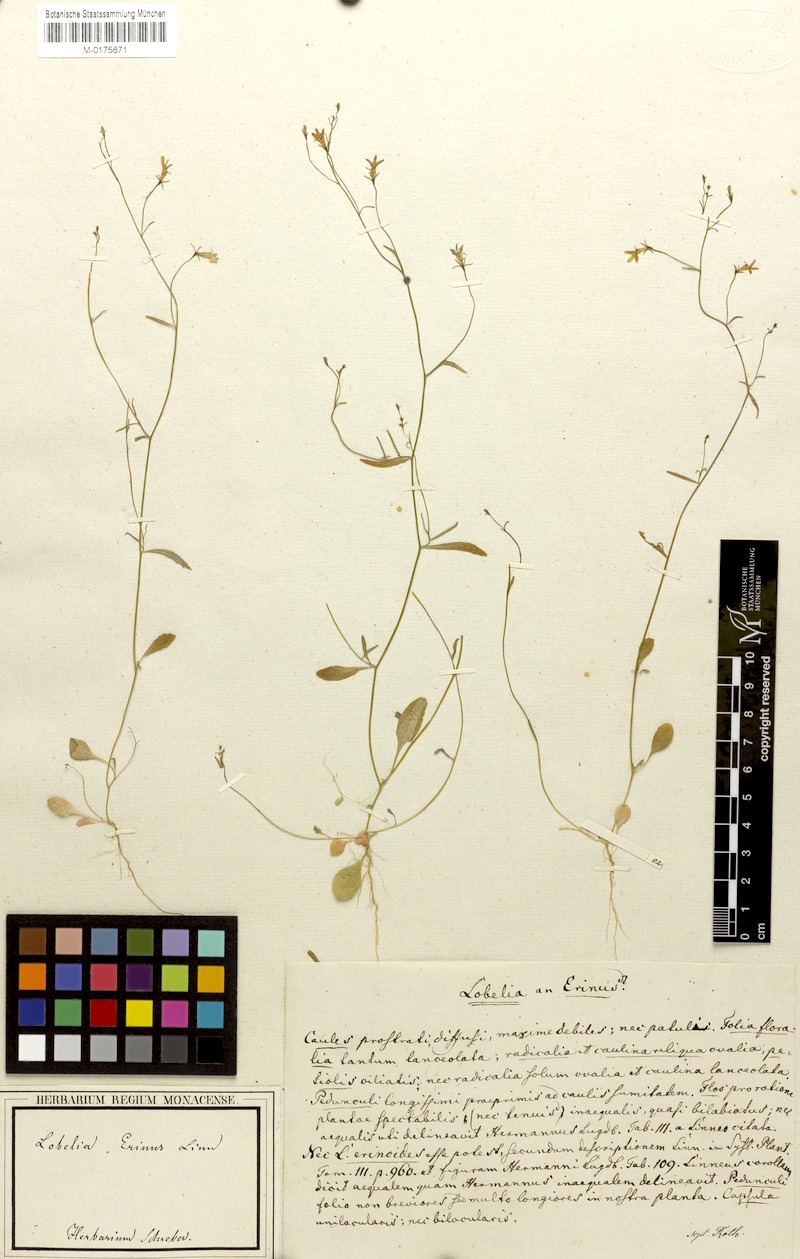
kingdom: Plantae
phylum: Tracheophyta
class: Magnoliopsida
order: Asterales
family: Campanulaceae
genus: Lobelia
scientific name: Lobelia erinus
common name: Edging lobelia
